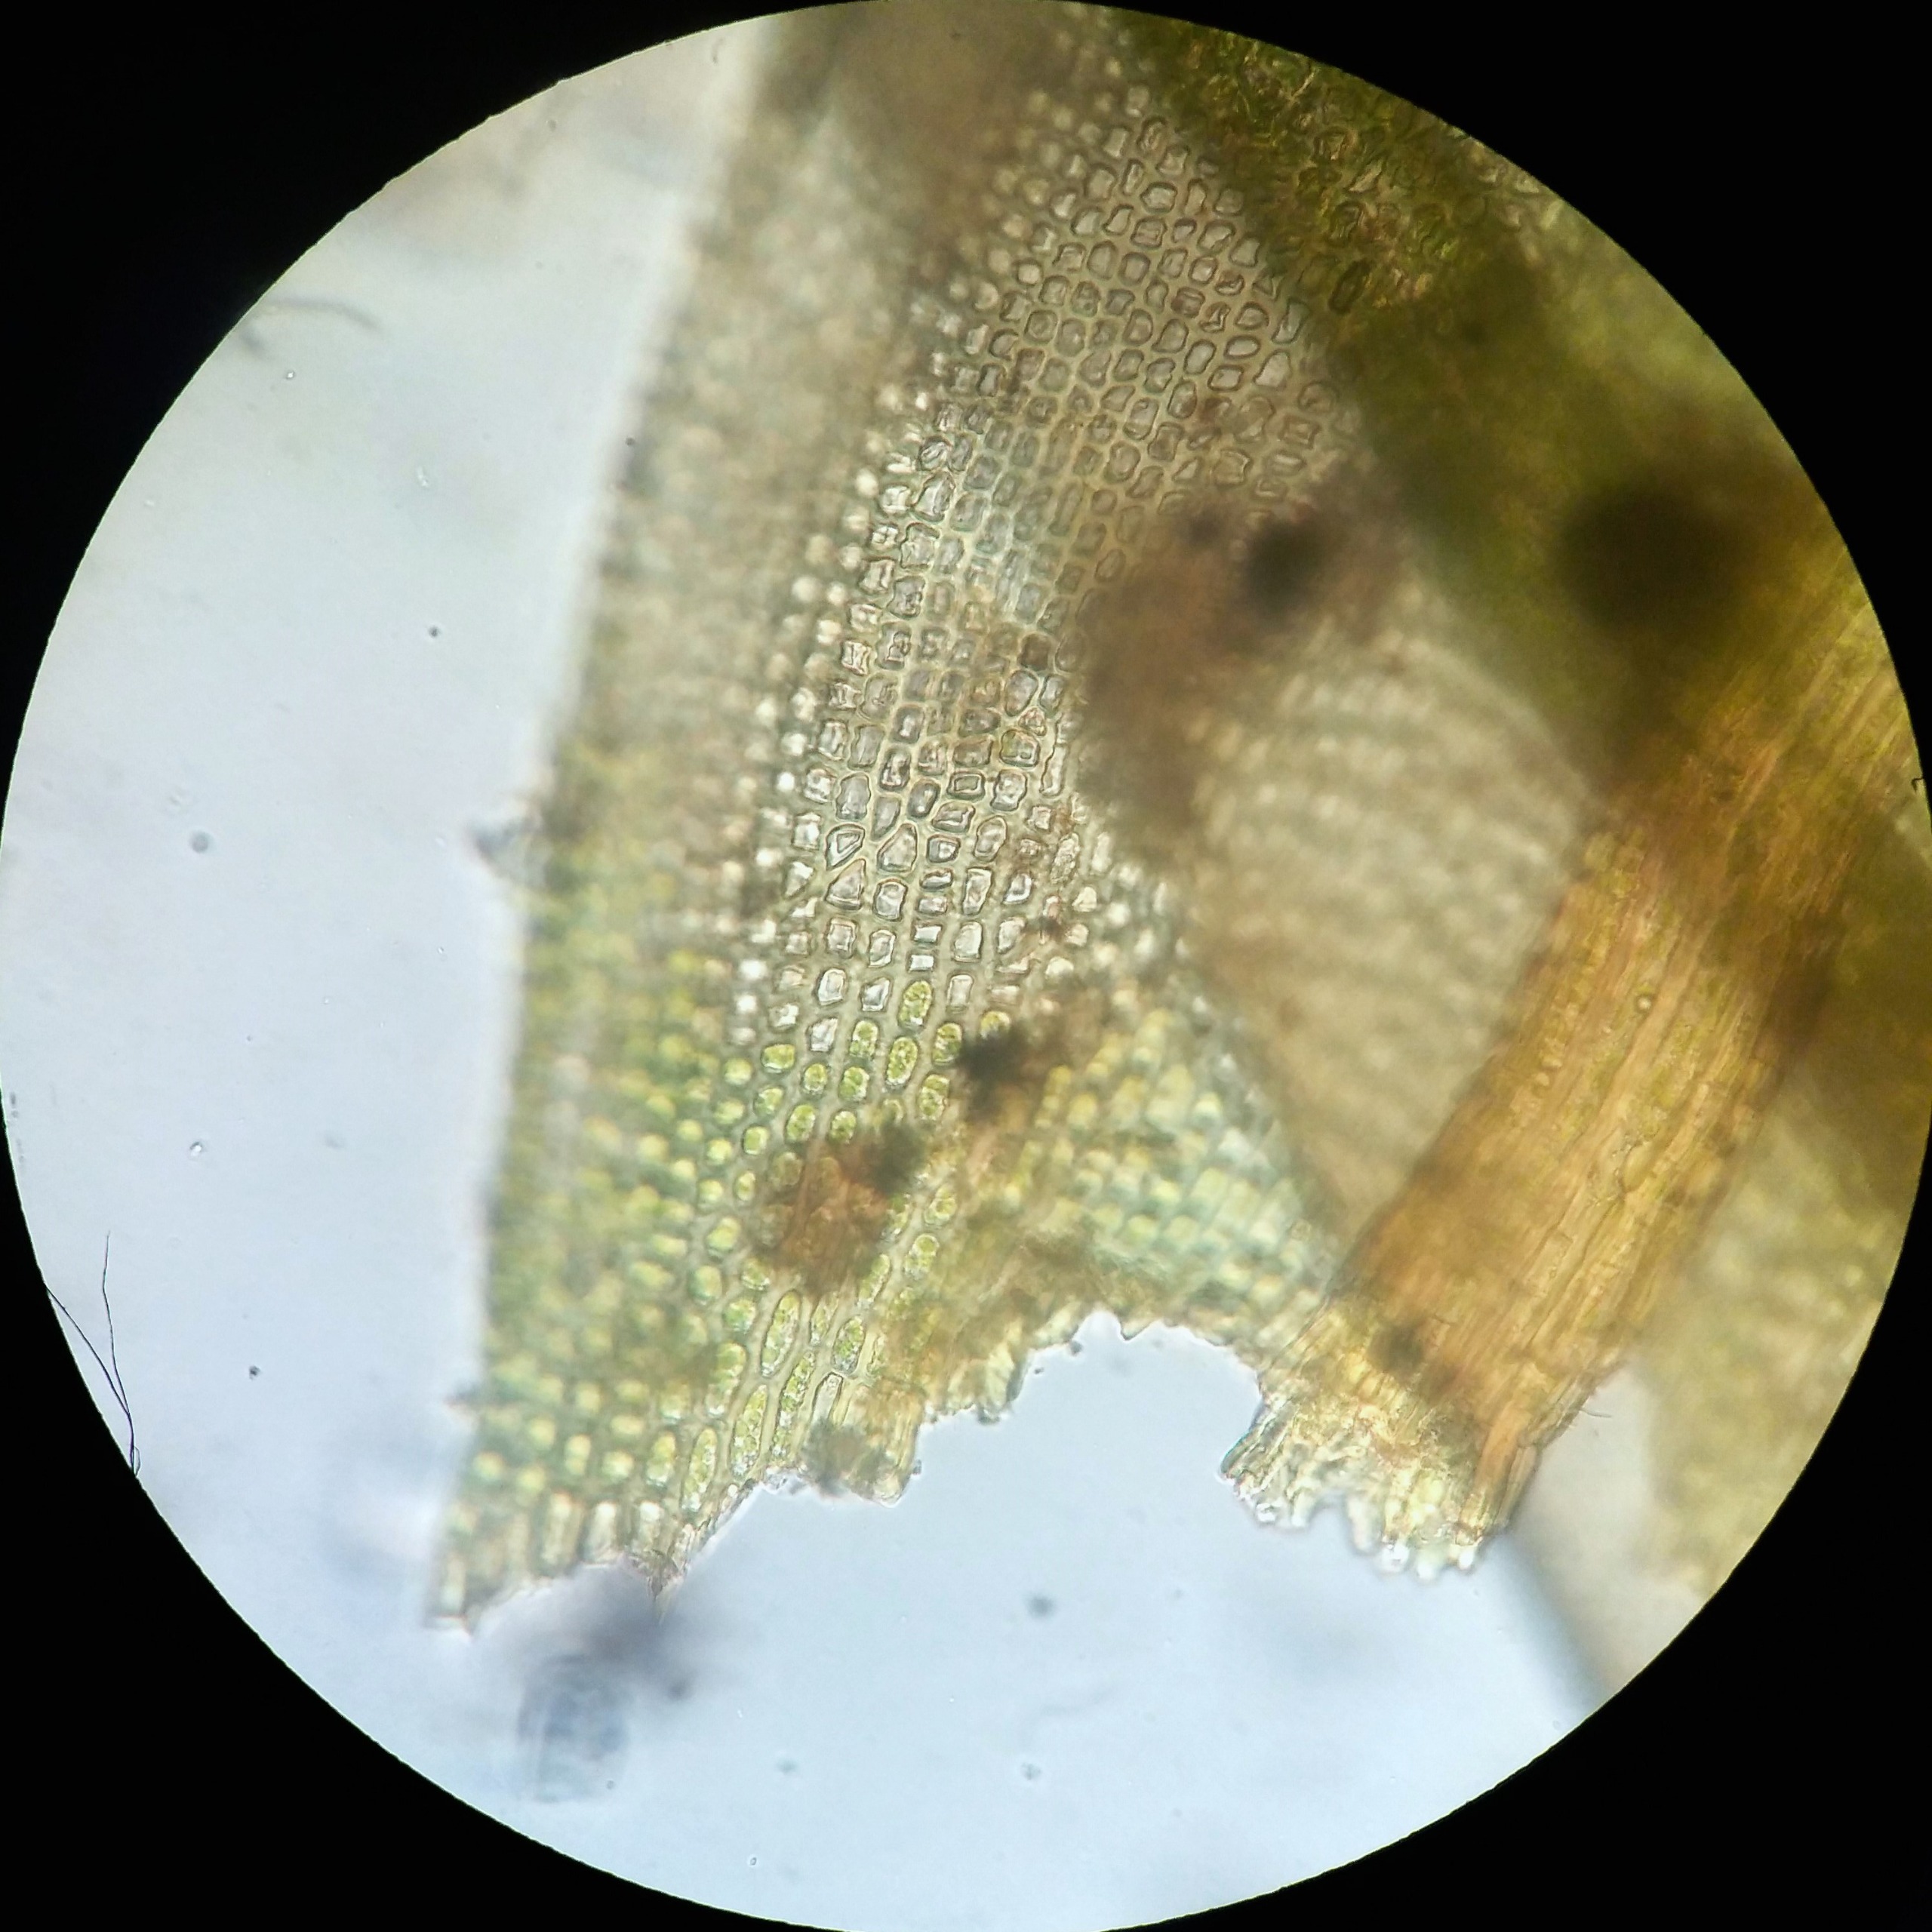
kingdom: Plantae
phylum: Bryophyta
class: Bryopsida
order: Grimmiales
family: Grimmiaceae
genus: Grimmia
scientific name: Grimmia hartmanii
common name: Hartmans gråmos
